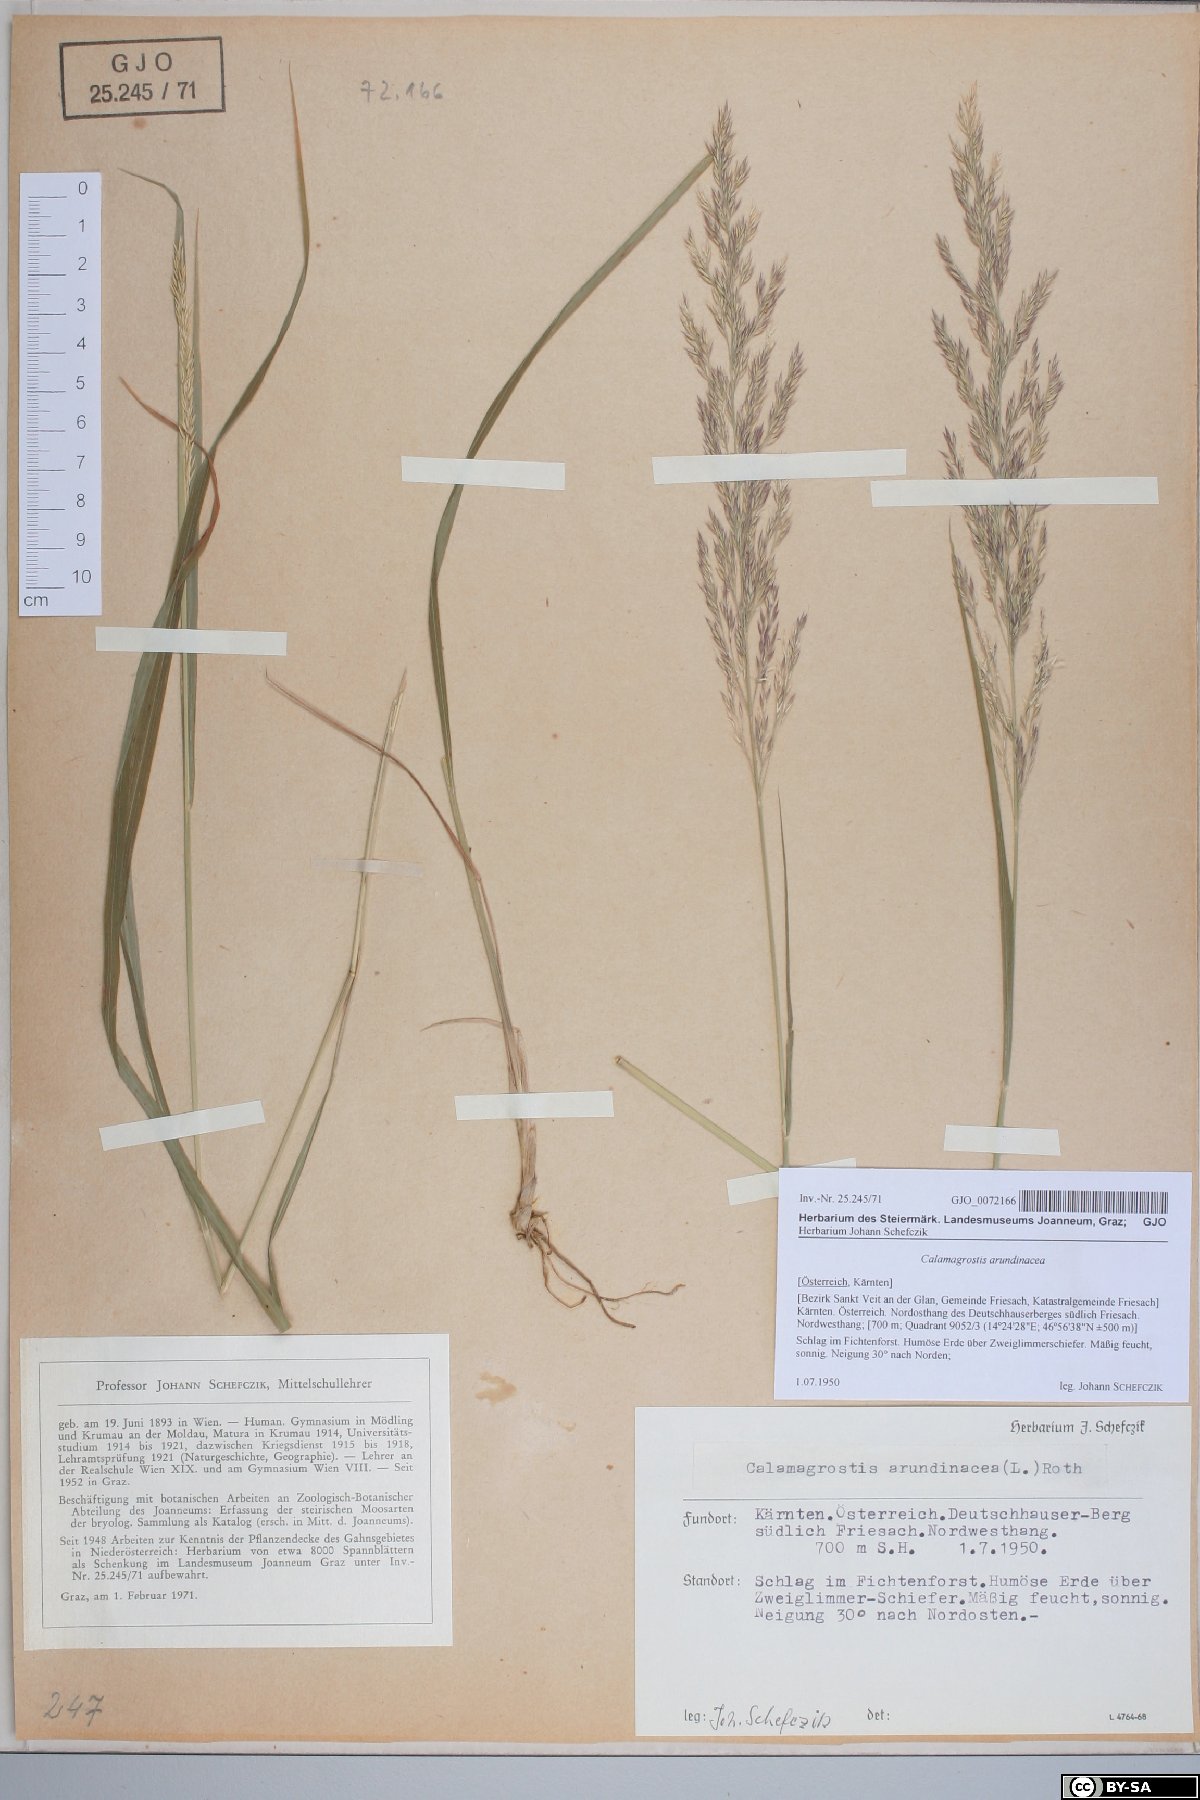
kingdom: Plantae
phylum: Tracheophyta
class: Liliopsida
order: Poales
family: Poaceae
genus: Calamagrostis
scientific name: Calamagrostis arundinacea
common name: Metskastik
